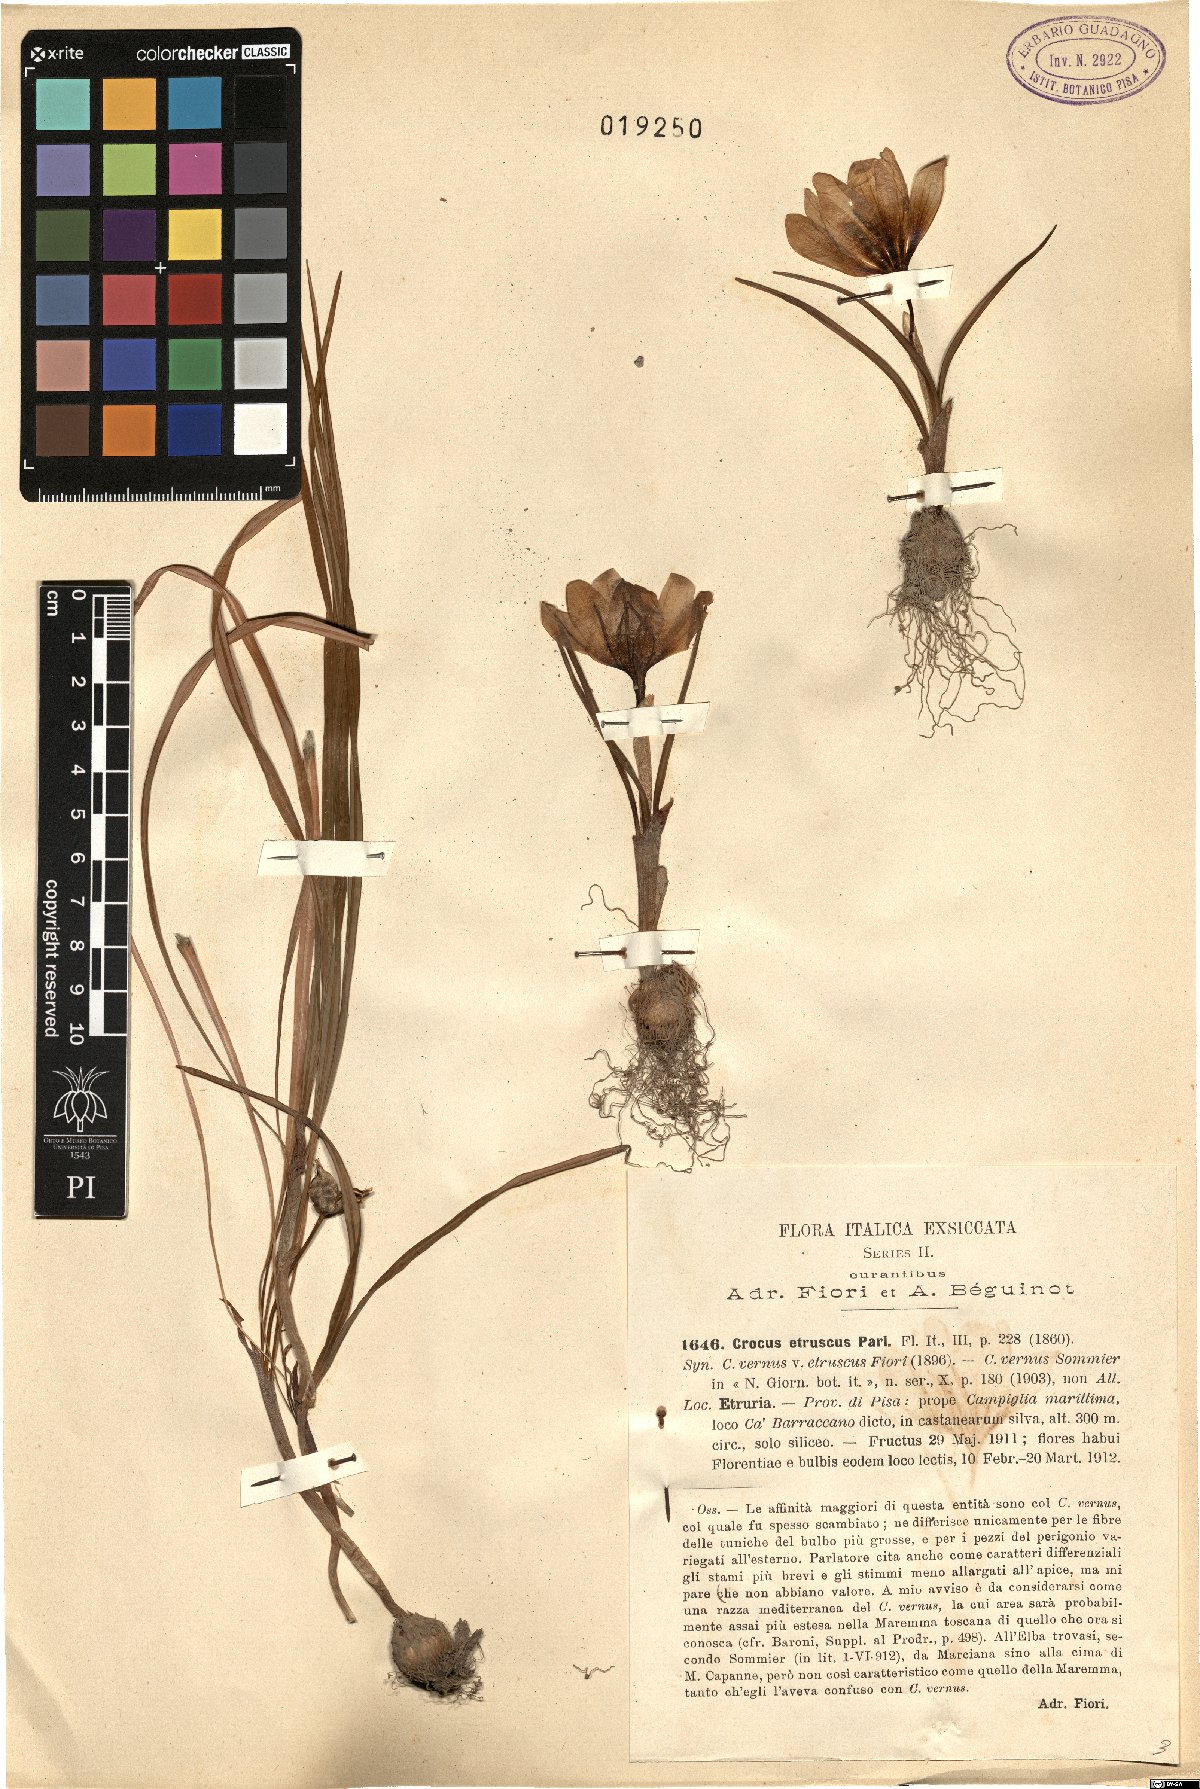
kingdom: Plantae
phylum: Tracheophyta
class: Liliopsida
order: Asparagales
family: Iridaceae
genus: Crocus
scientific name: Crocus etruscus
